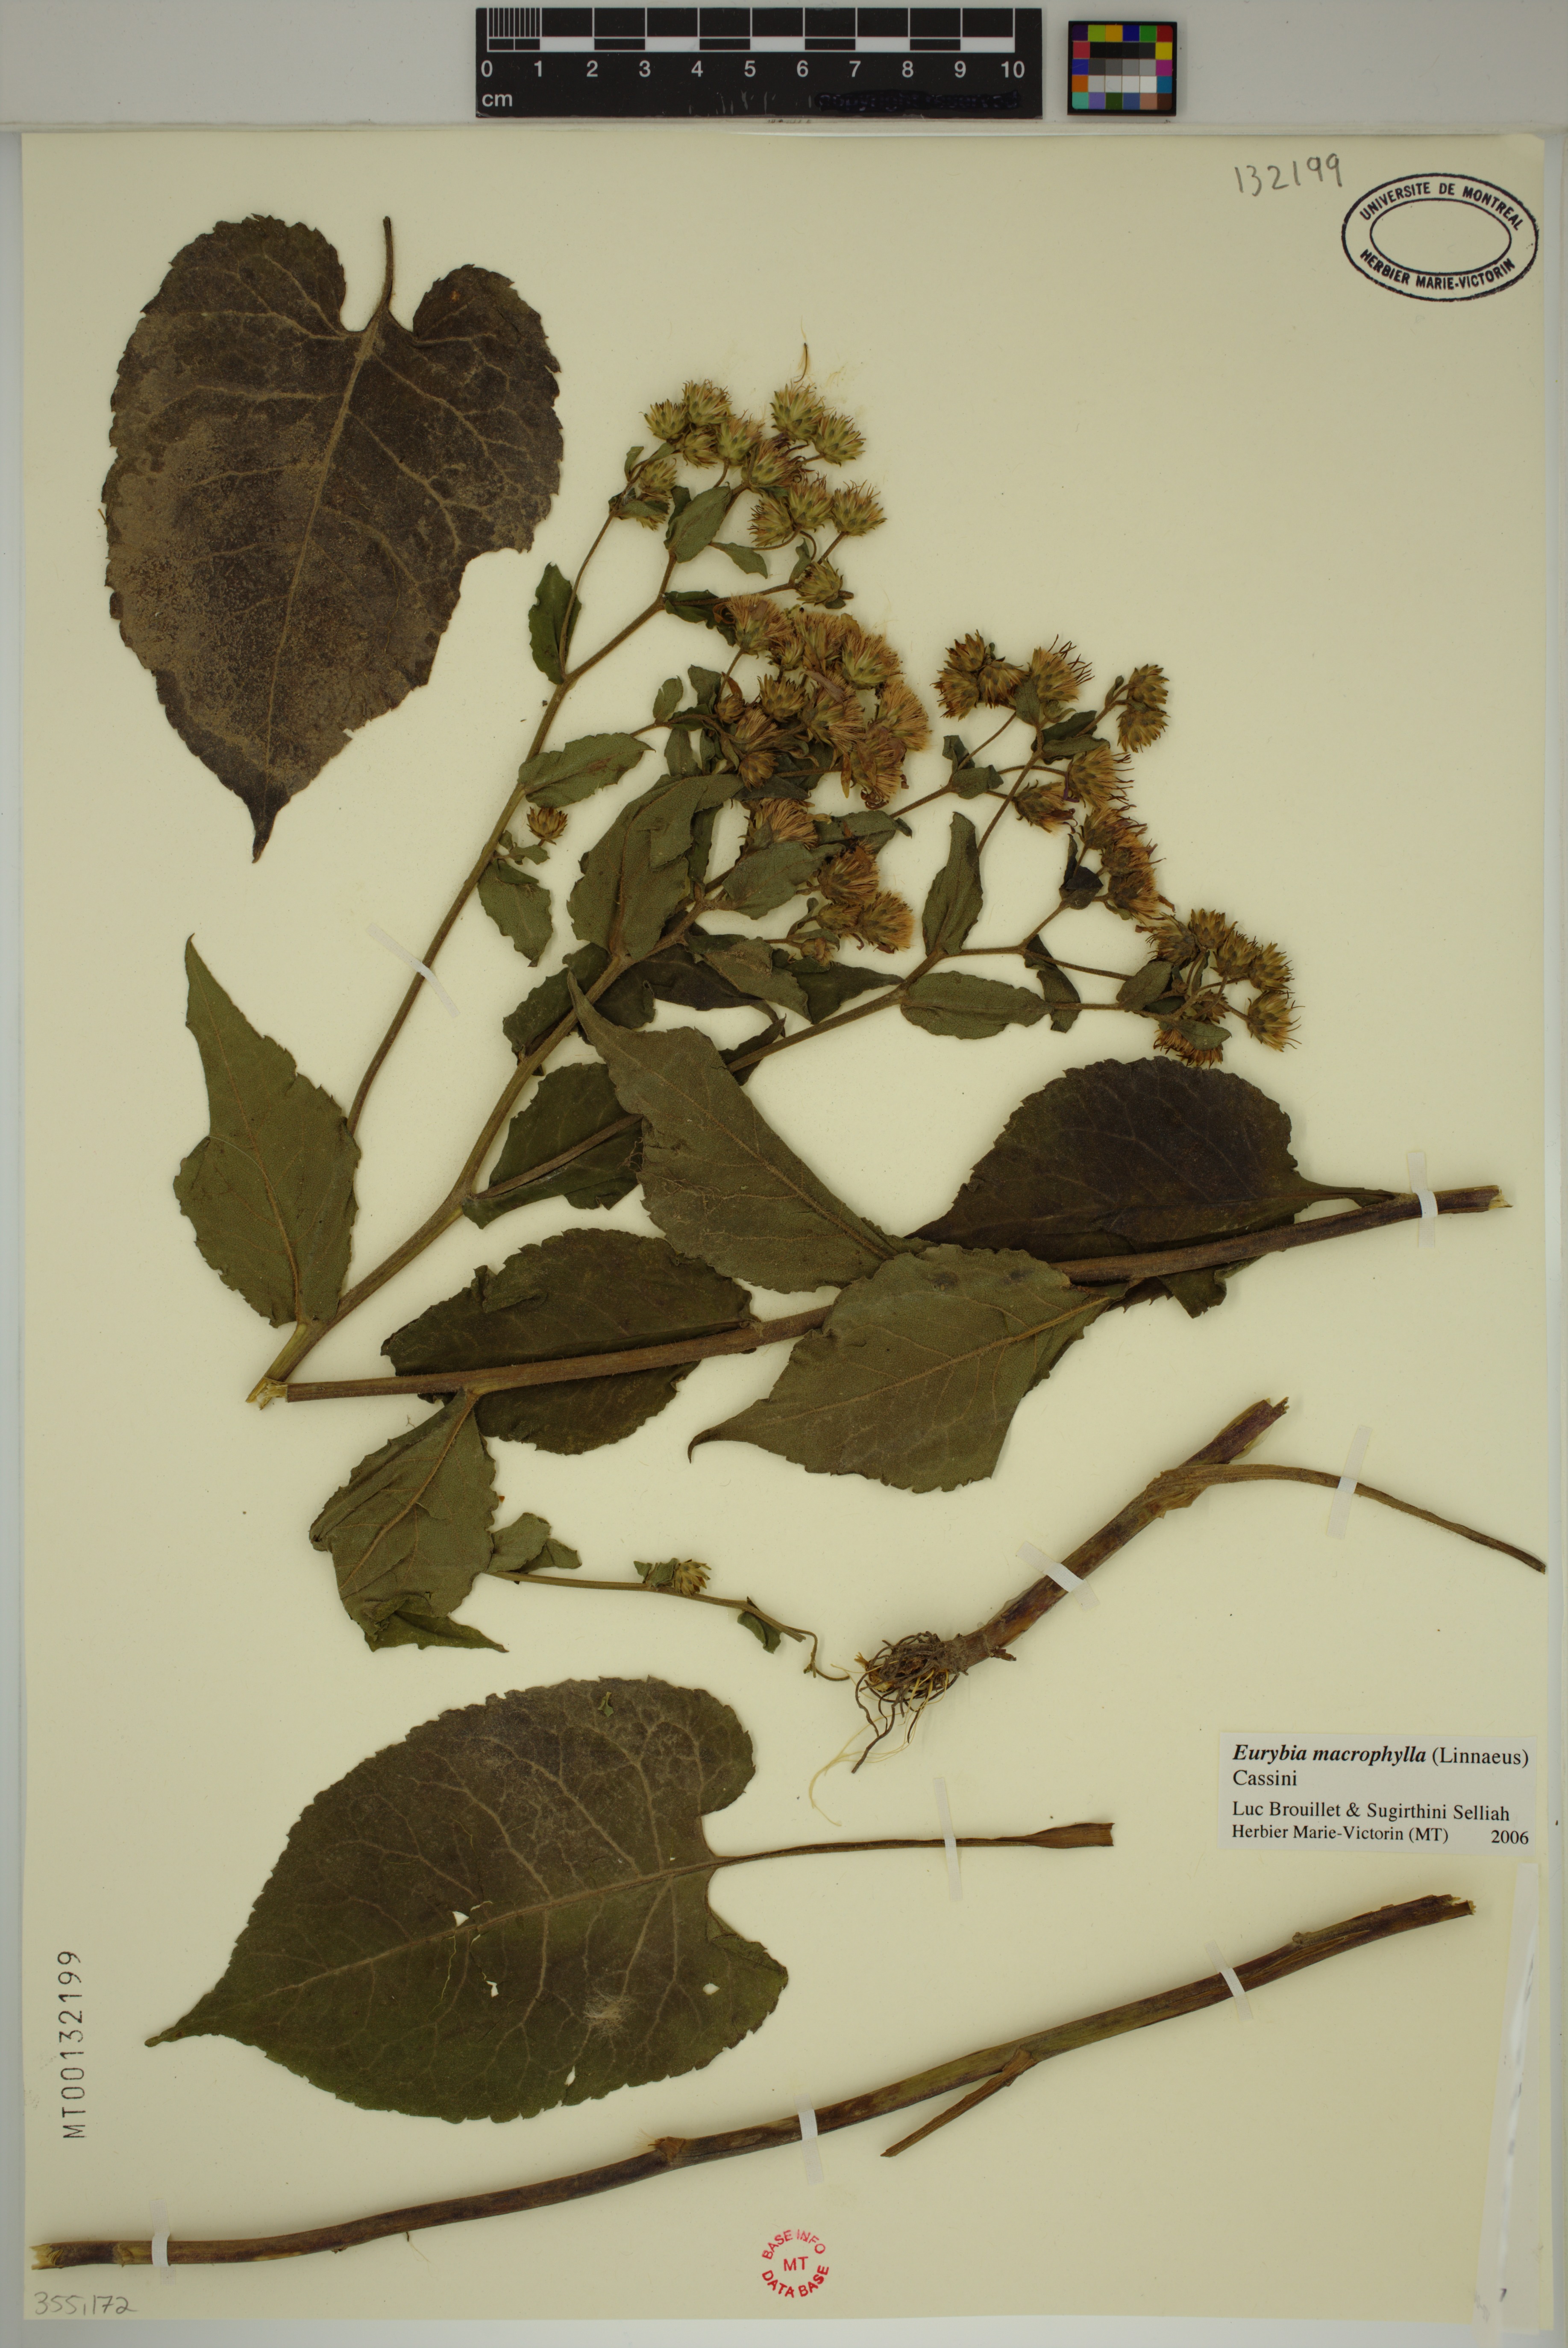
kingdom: Plantae
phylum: Tracheophyta
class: Magnoliopsida
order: Asterales
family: Asteraceae
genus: Eurybia
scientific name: Eurybia macrophylla
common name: Big-leaved aster
